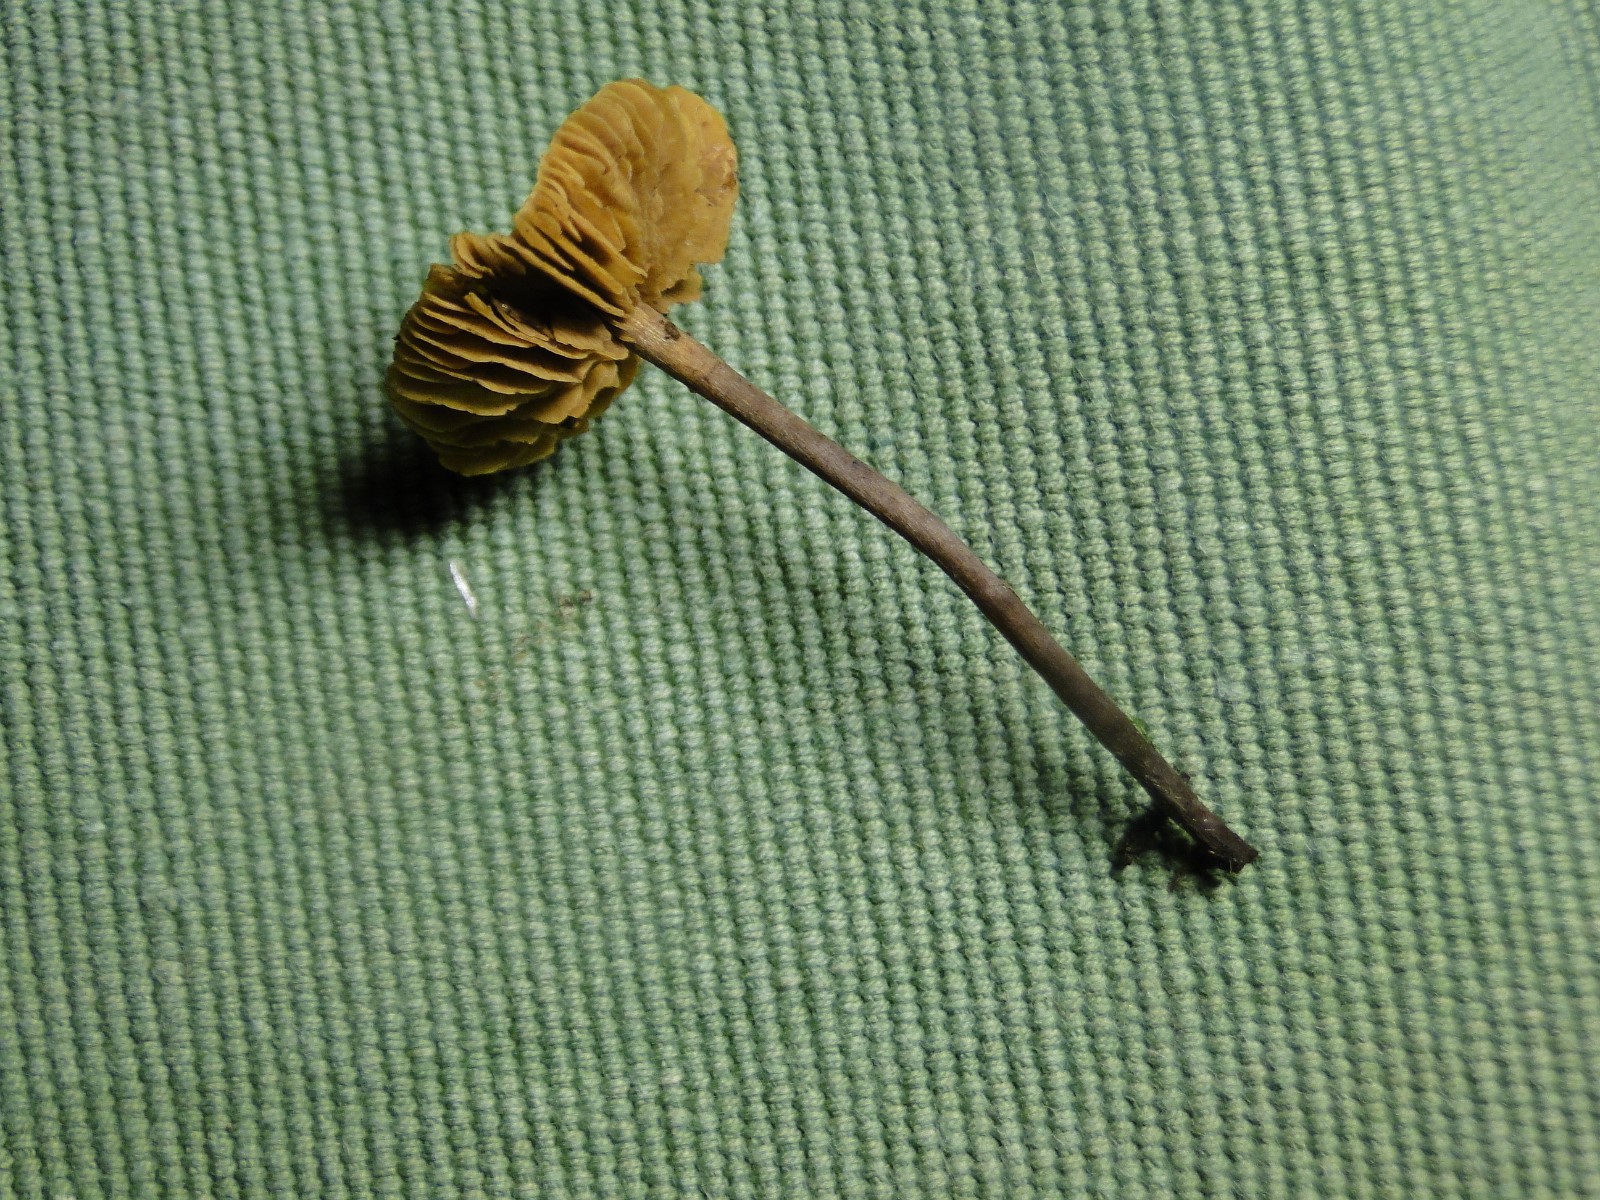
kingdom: Fungi
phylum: Basidiomycota
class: Agaricomycetes
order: Agaricales
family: Hymenogastraceae
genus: Naucoria
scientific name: Naucoria
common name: knaphat
